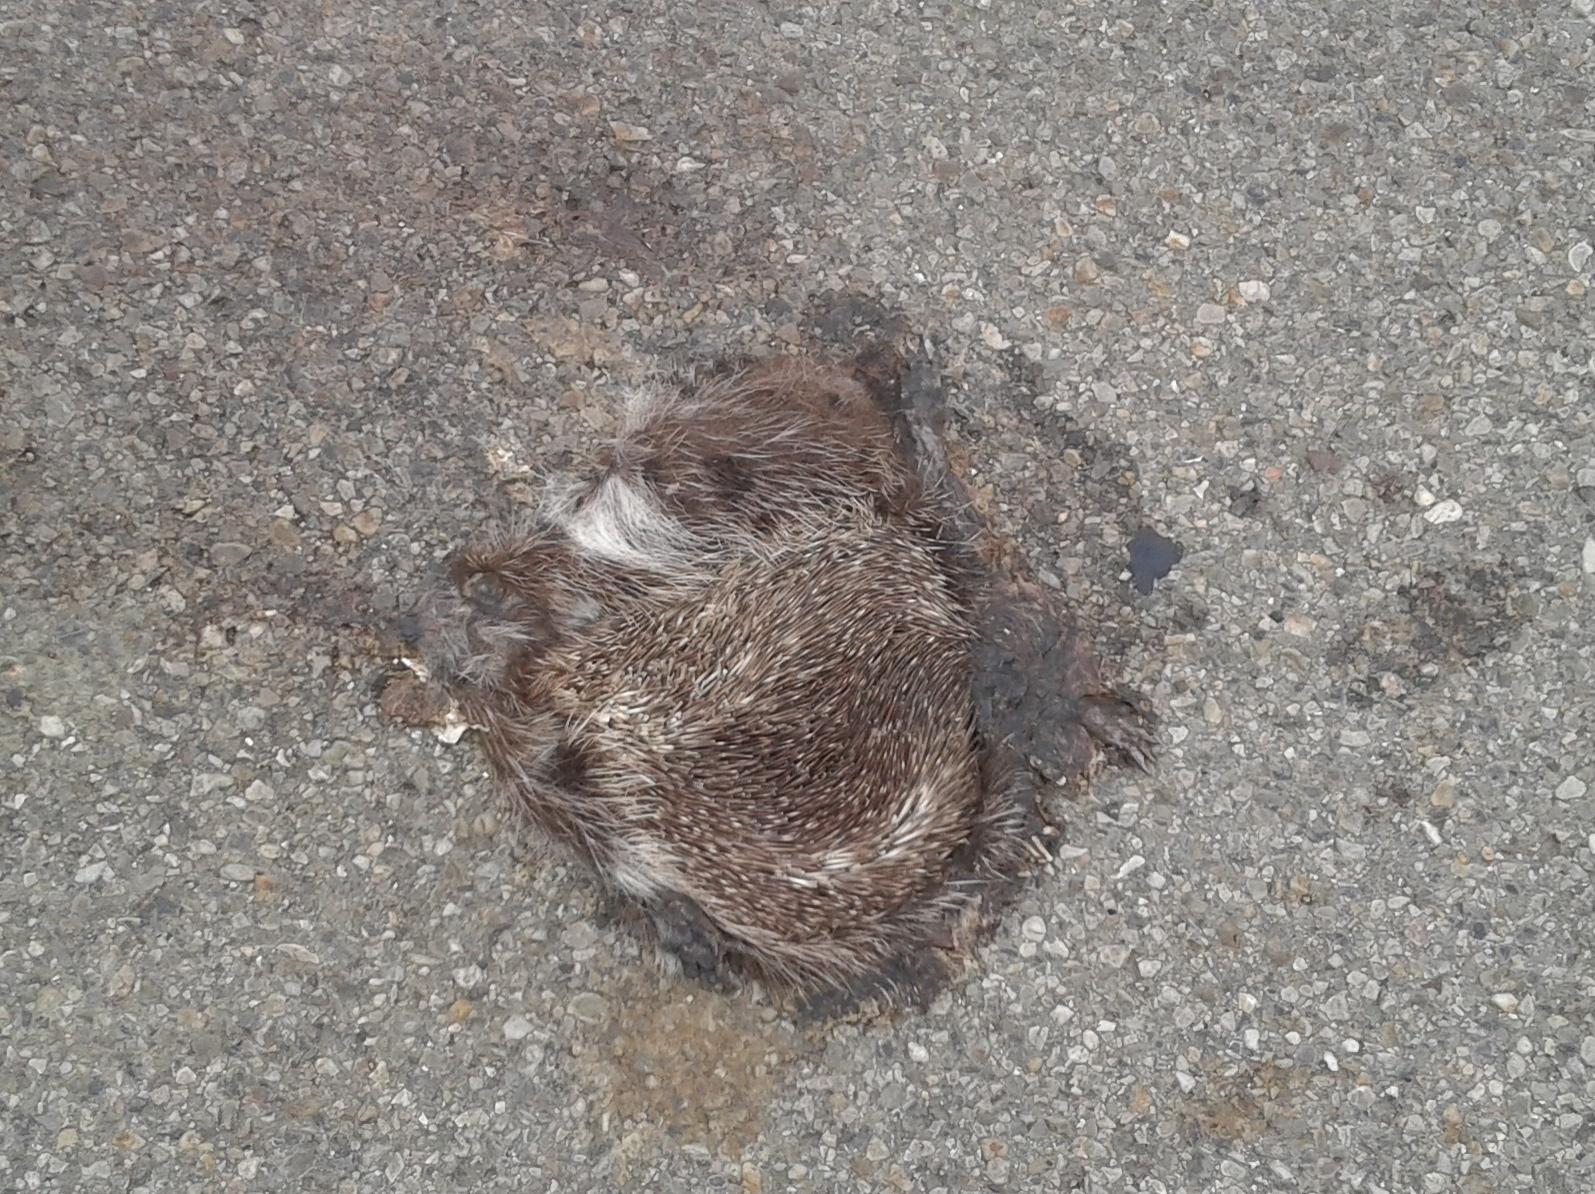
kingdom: Animalia
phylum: Chordata
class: Mammalia
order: Erinaceomorpha
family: Erinaceidae
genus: Erinaceus
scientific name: Erinaceus
